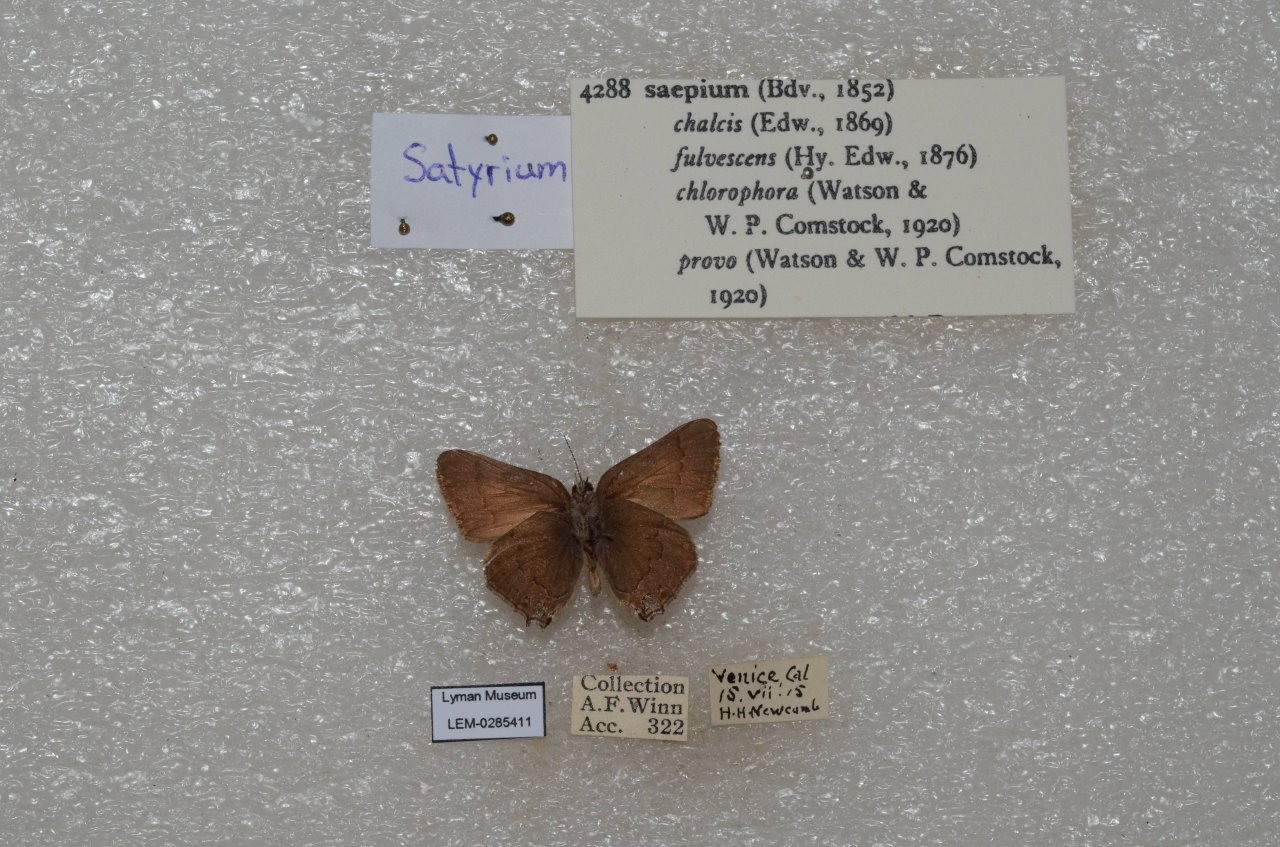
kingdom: Animalia
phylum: Arthropoda
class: Insecta
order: Lepidoptera
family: Lycaenidae
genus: Strymon
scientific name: Strymon saepium
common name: Hedgerow Hairstreak
